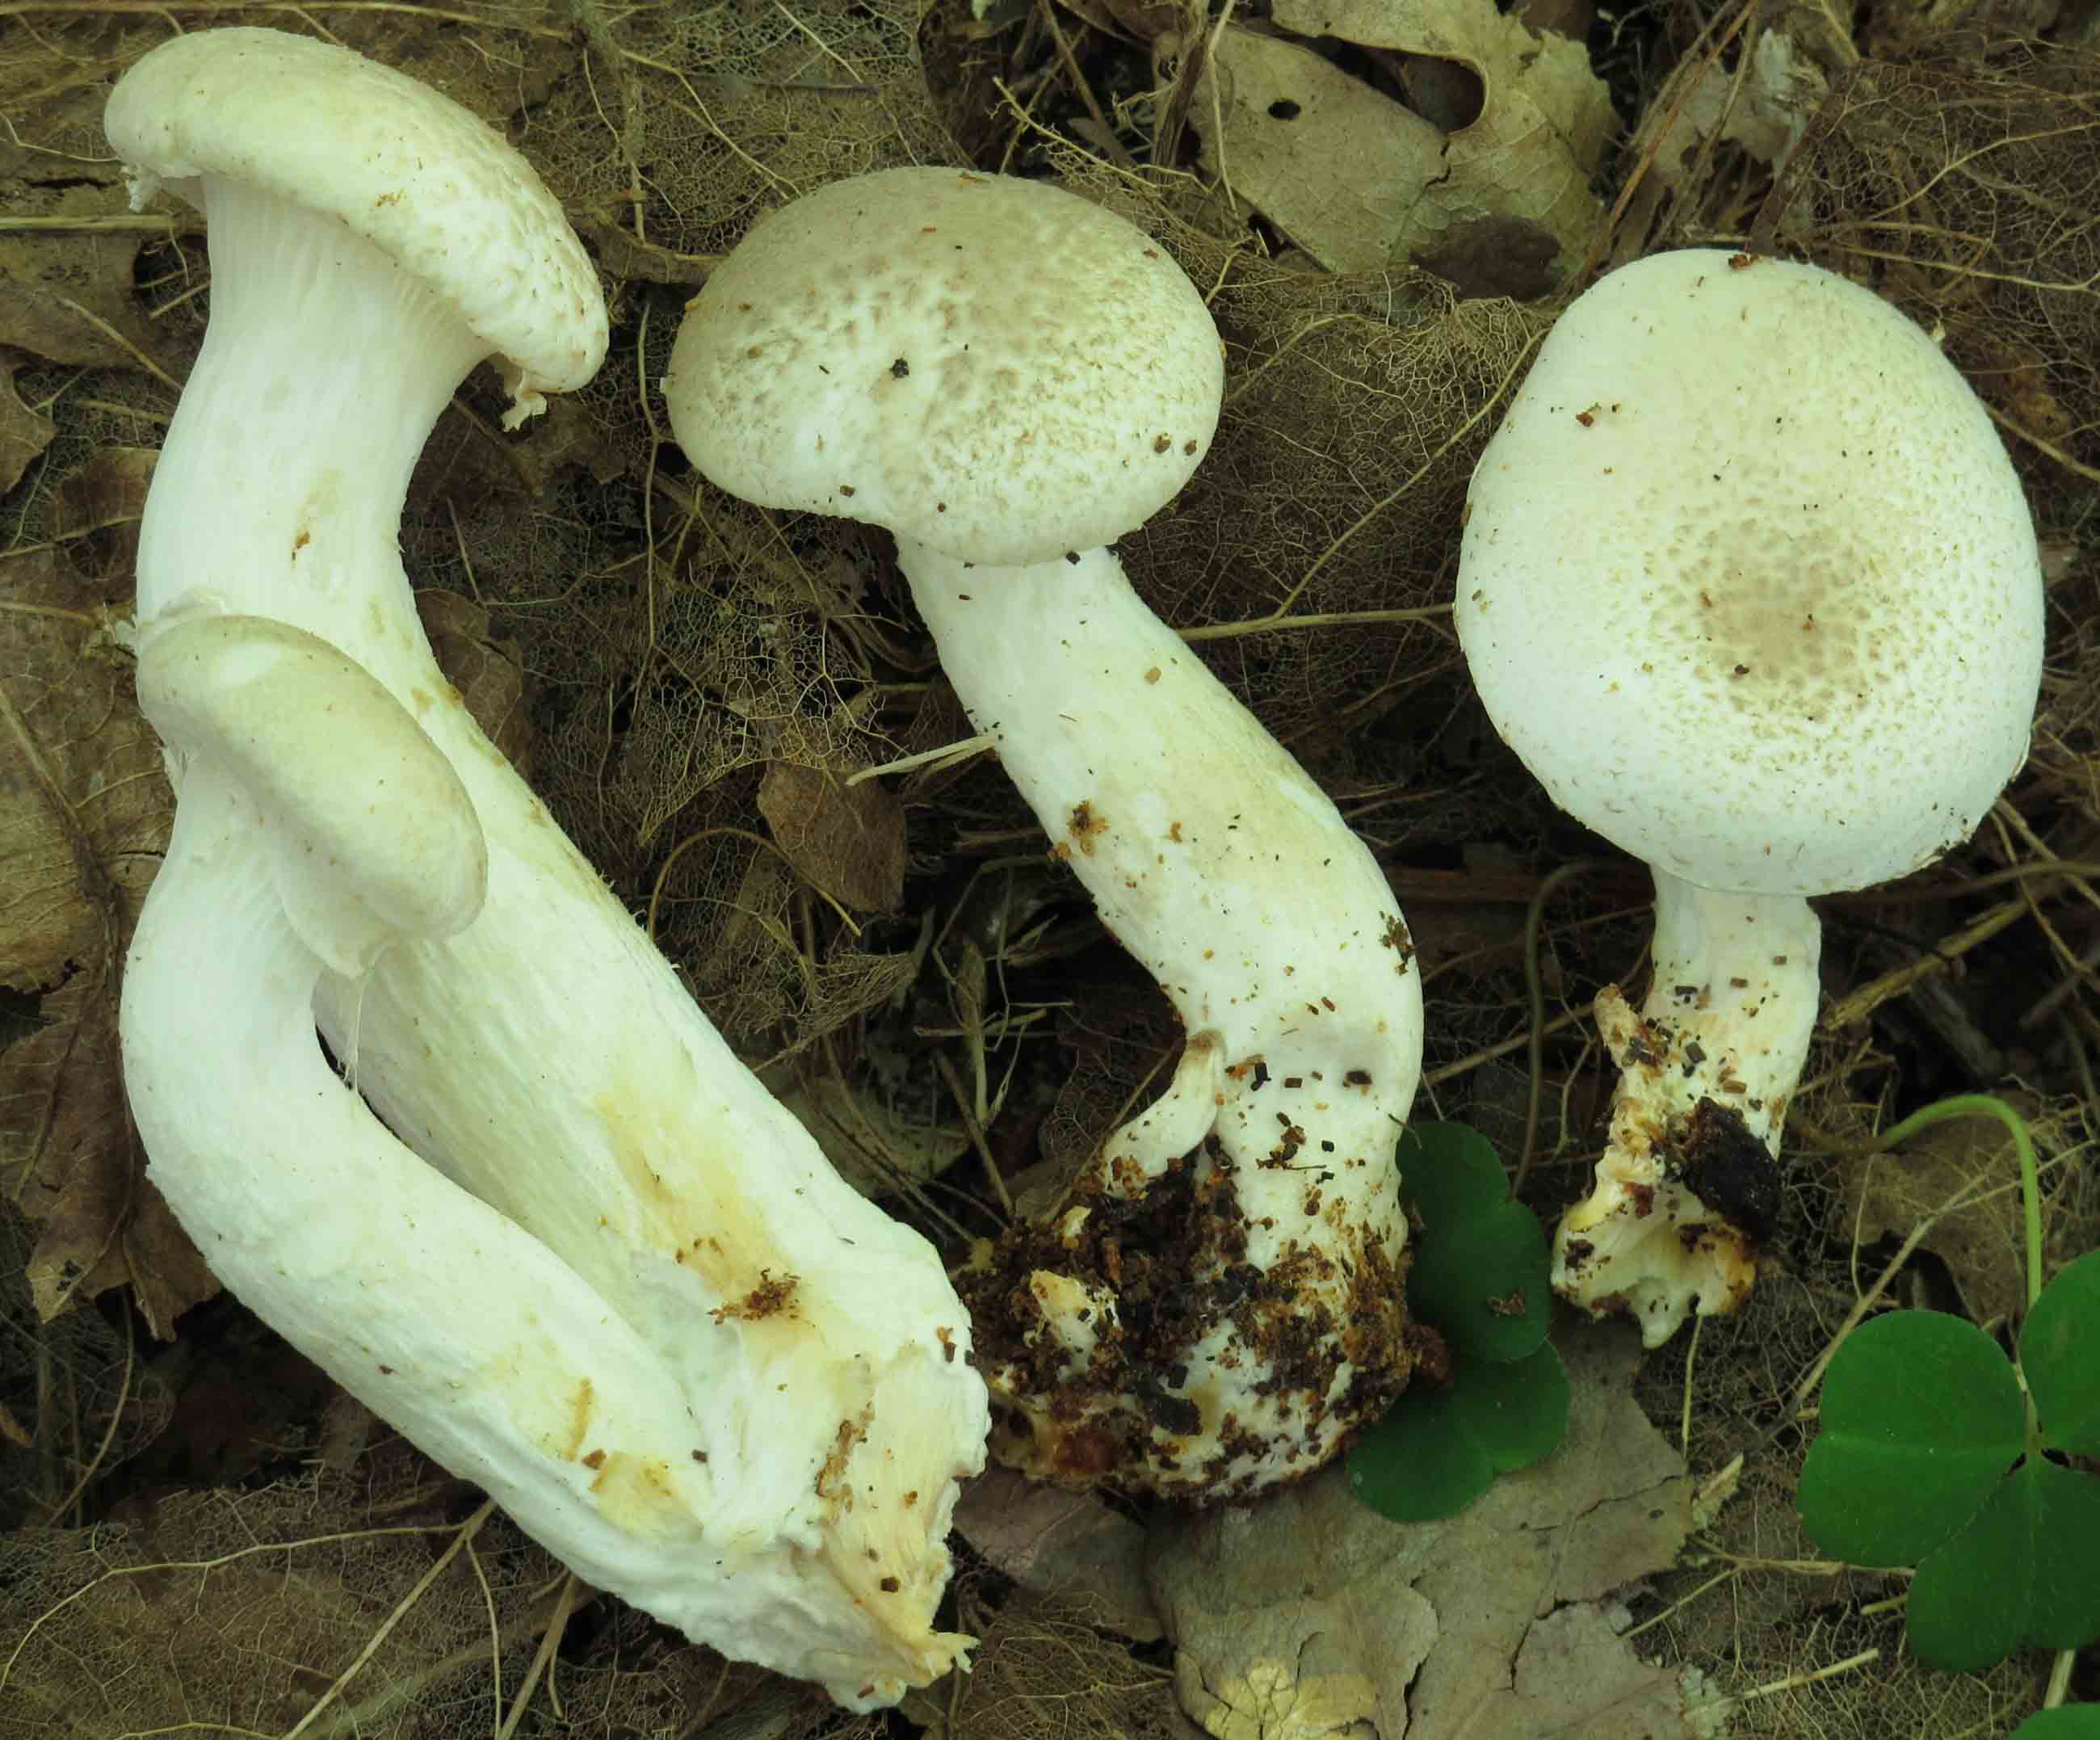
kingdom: Fungi
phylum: Basidiomycota
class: Agaricomycetes
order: Agaricales
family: Pleurotaceae
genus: Pleurotus
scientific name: Pleurotus dryinus
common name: korkagtig østershat
